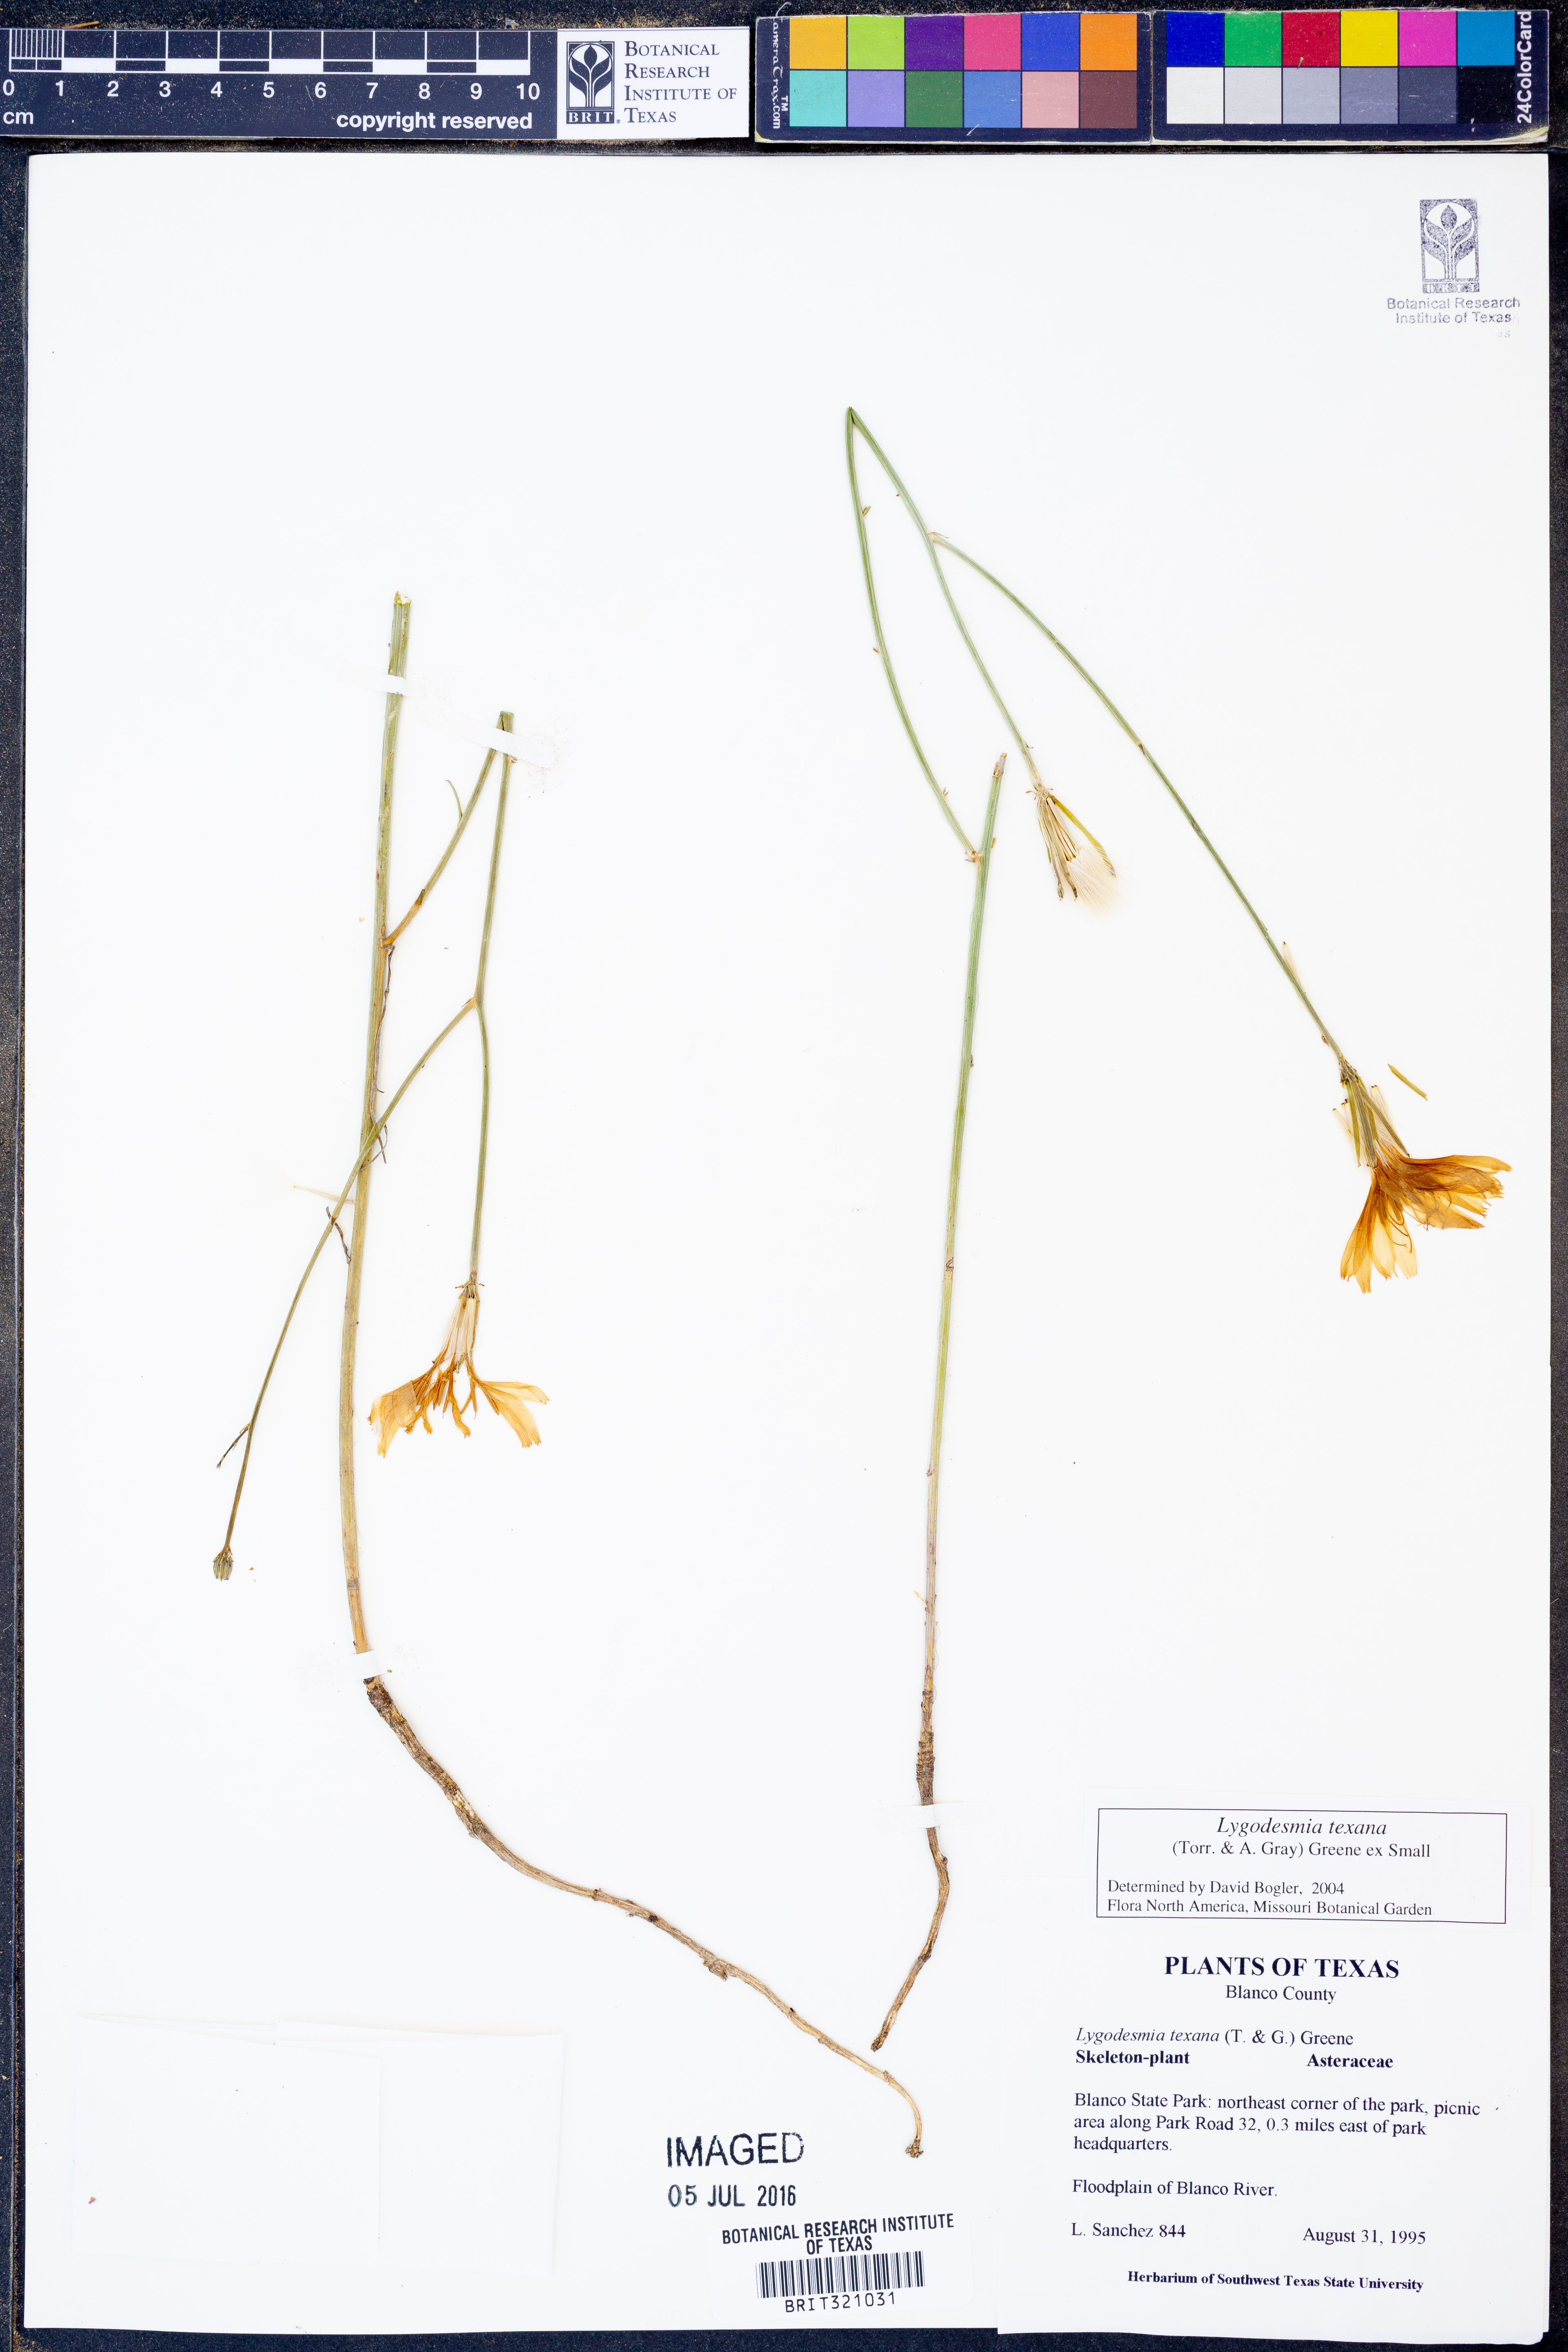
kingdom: Plantae
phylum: Tracheophyta
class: Magnoliopsida
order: Asterales
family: Asteraceae
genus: Lygodesmia
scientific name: Lygodesmia texana
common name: Texas skeleton-plant
